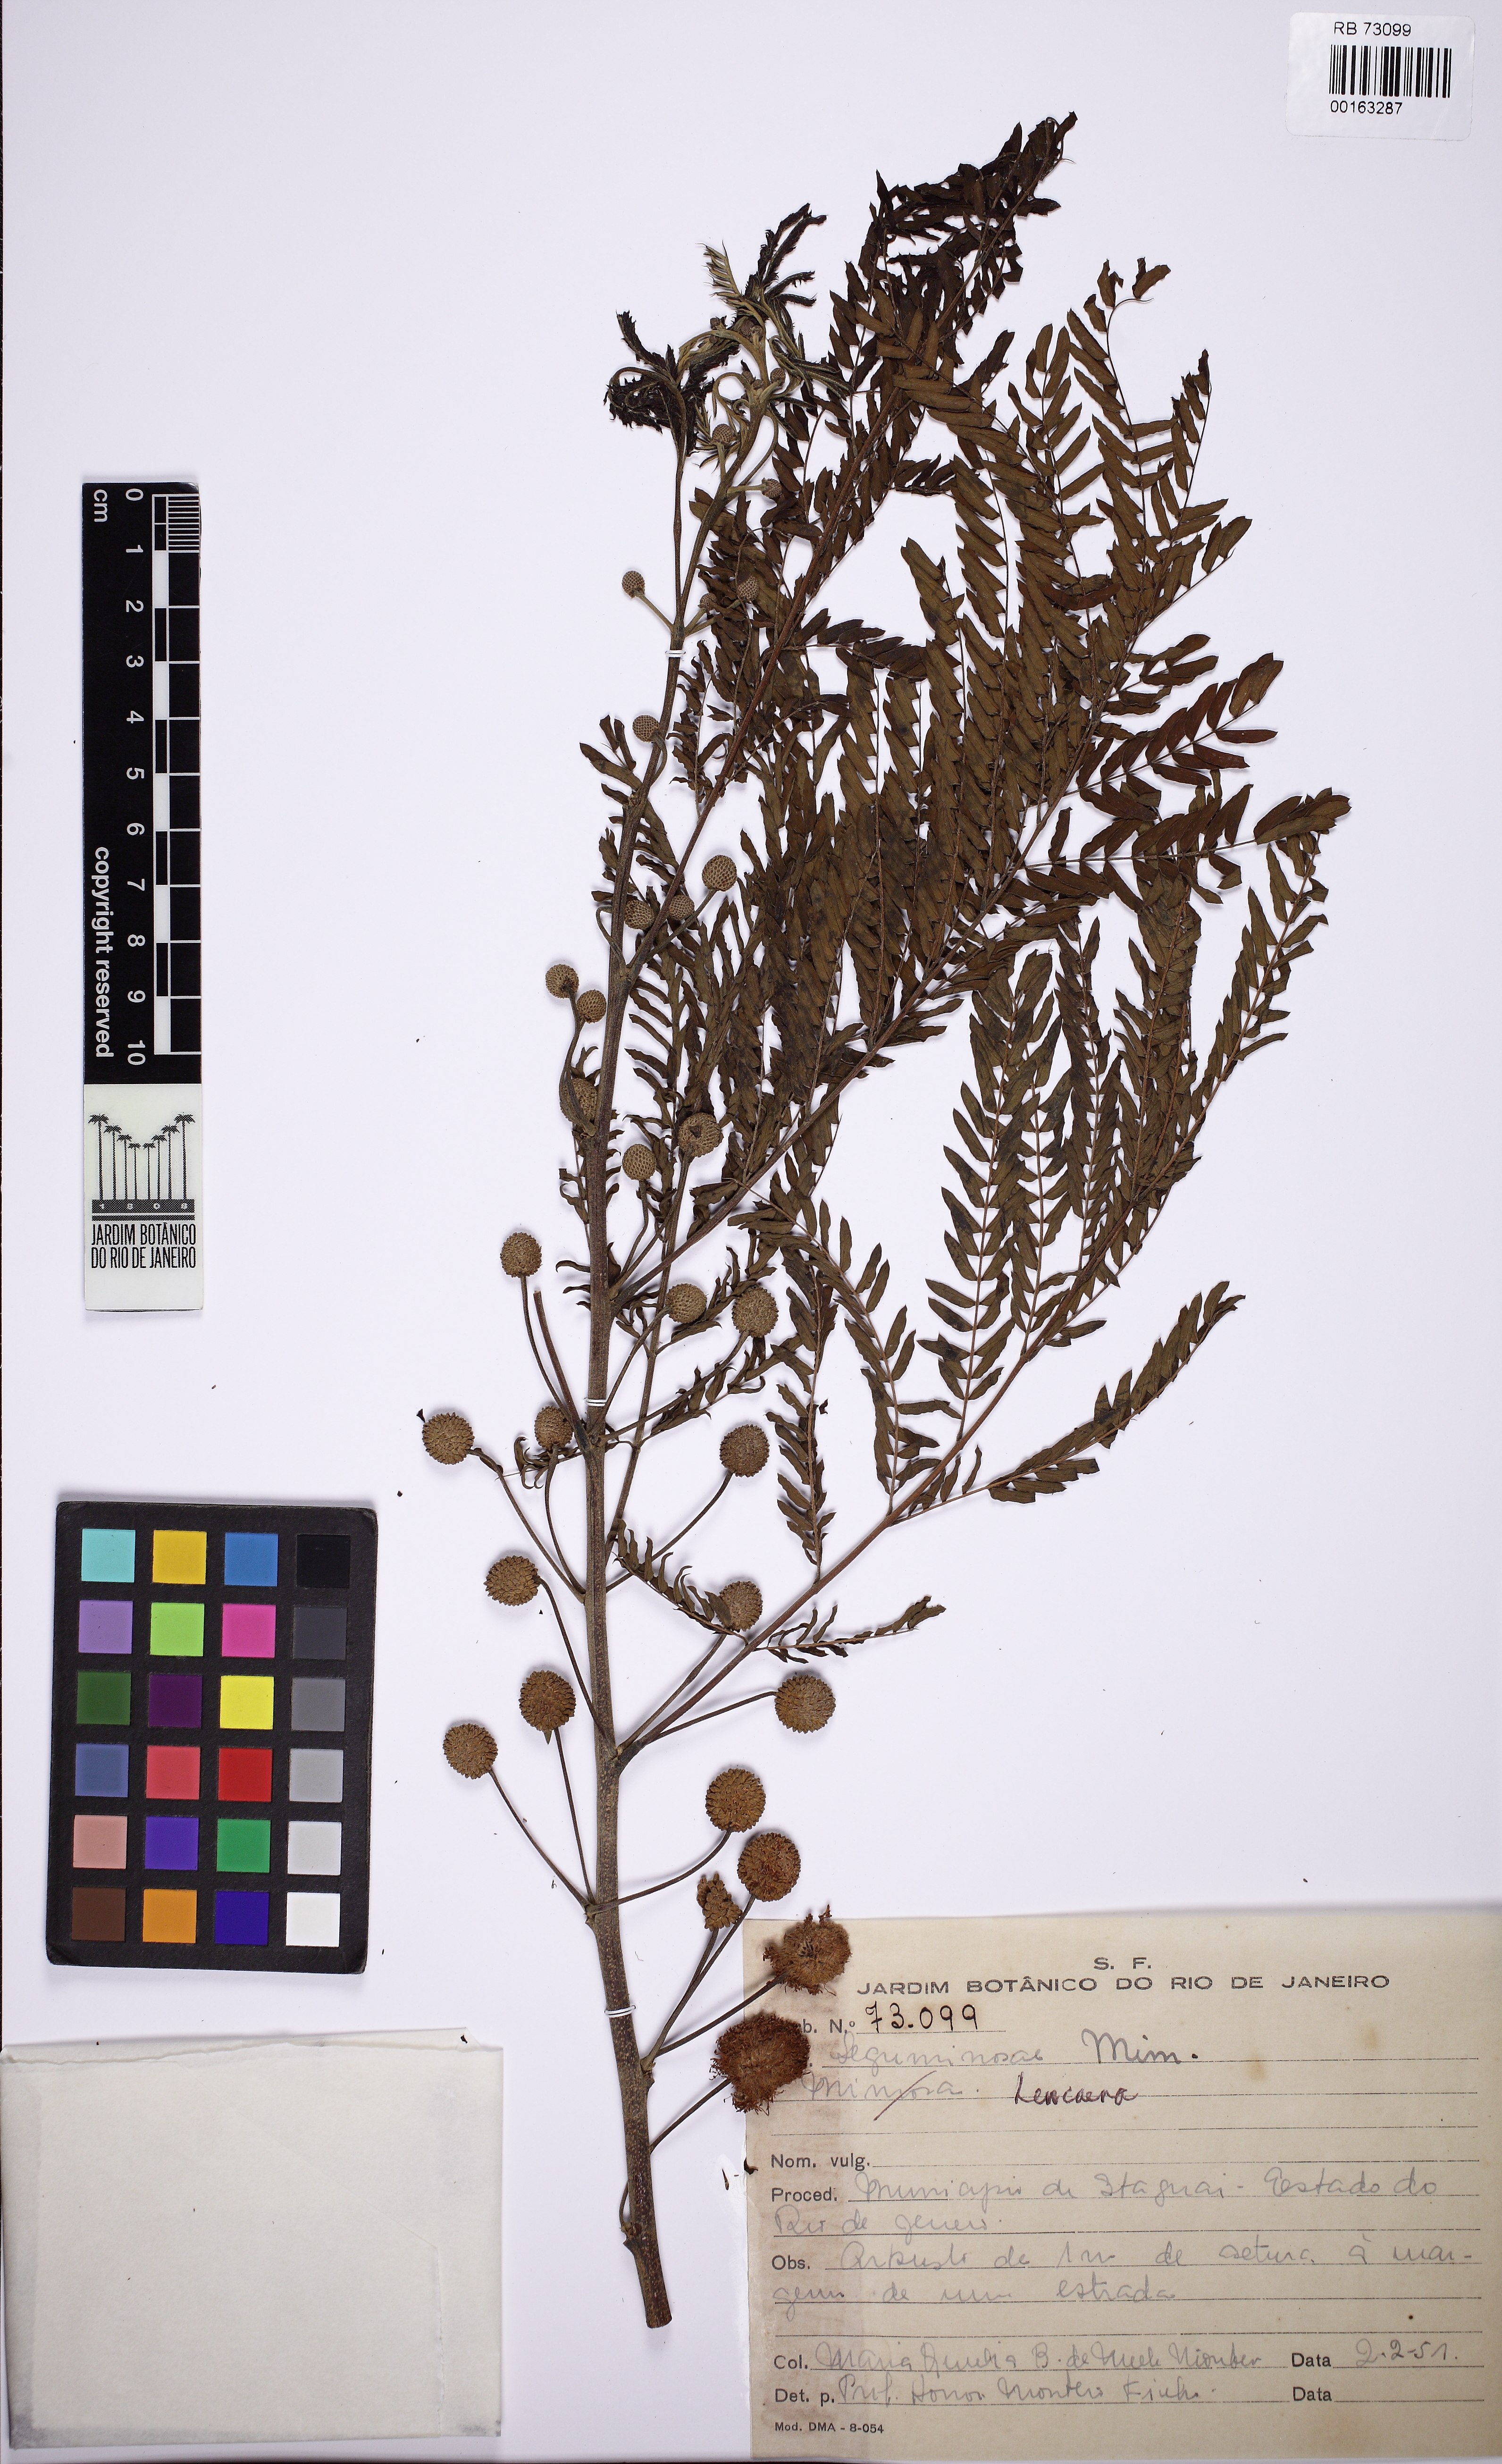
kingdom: Plantae
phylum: Tracheophyta
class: Magnoliopsida
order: Fabales
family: Fabaceae
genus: Leucaena
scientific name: Leucaena
